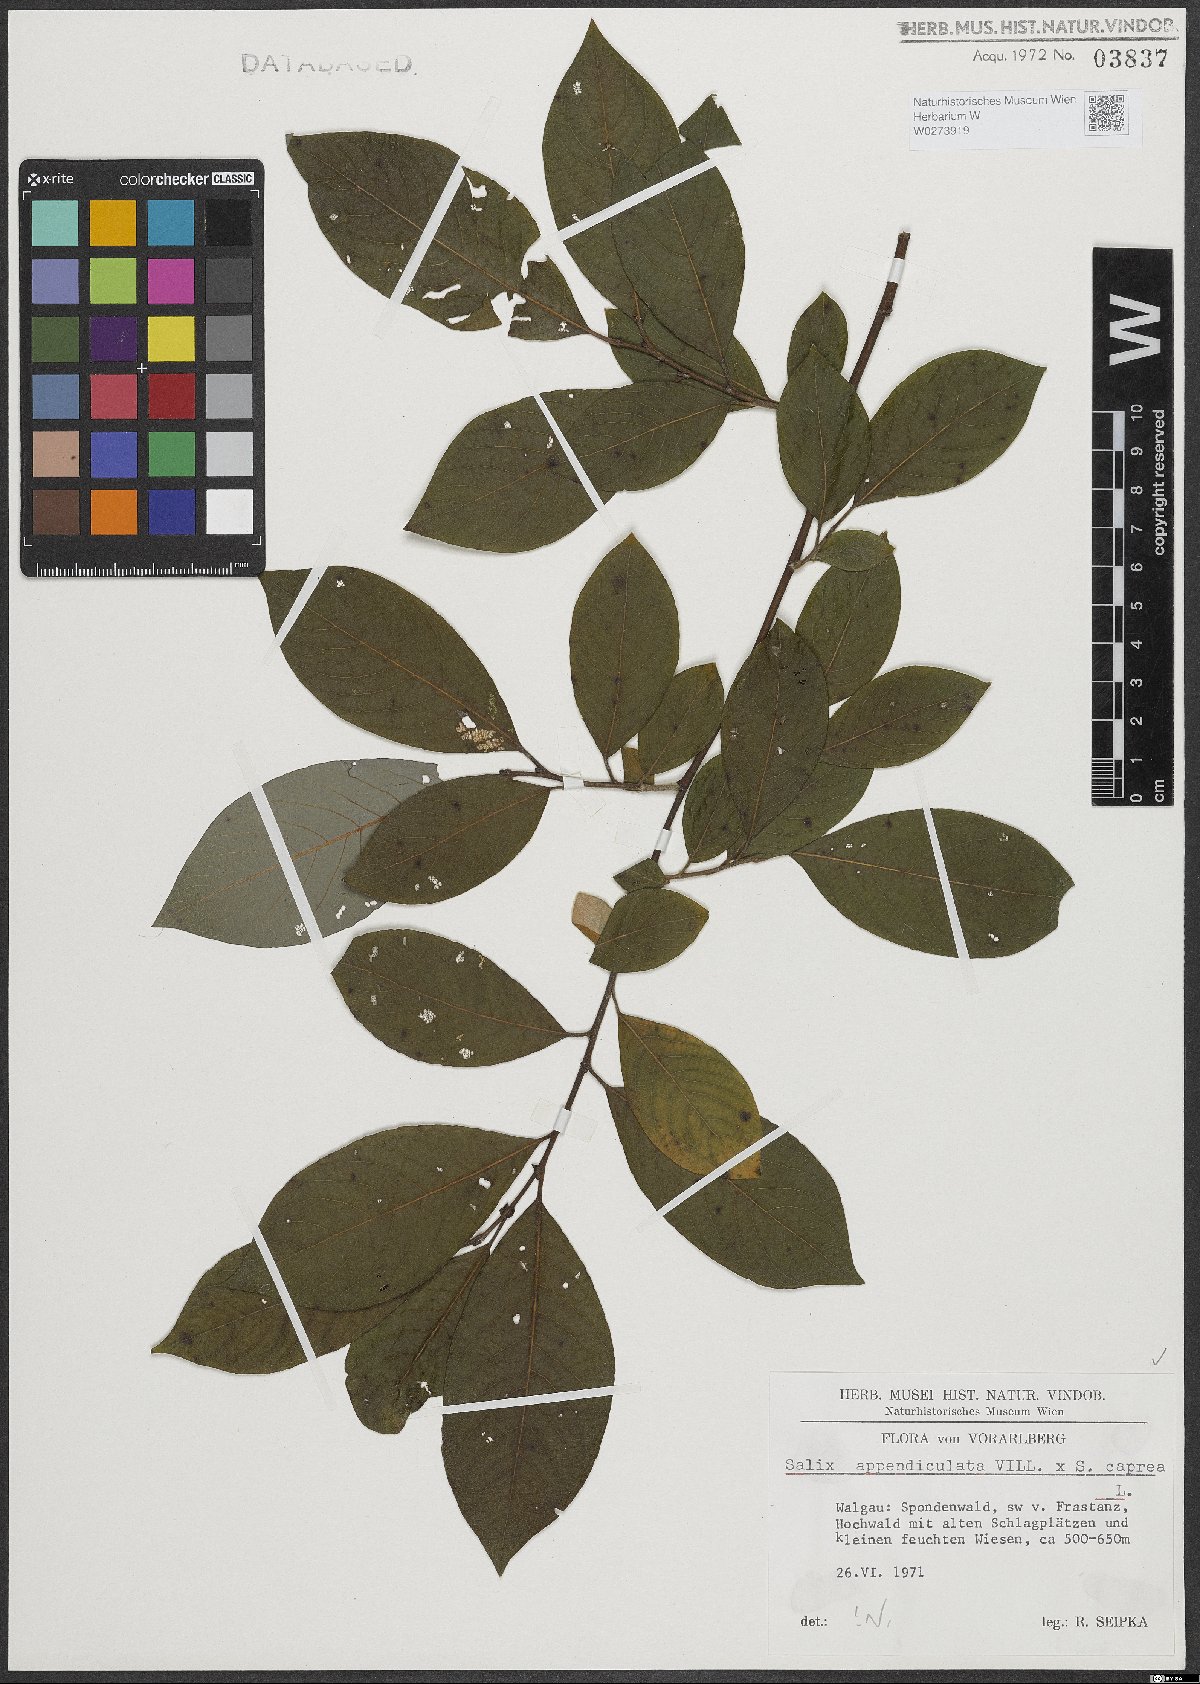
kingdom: Plantae
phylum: Tracheophyta
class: Magnoliopsida
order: Malpighiales
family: Salicaceae
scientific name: Salicaceae
